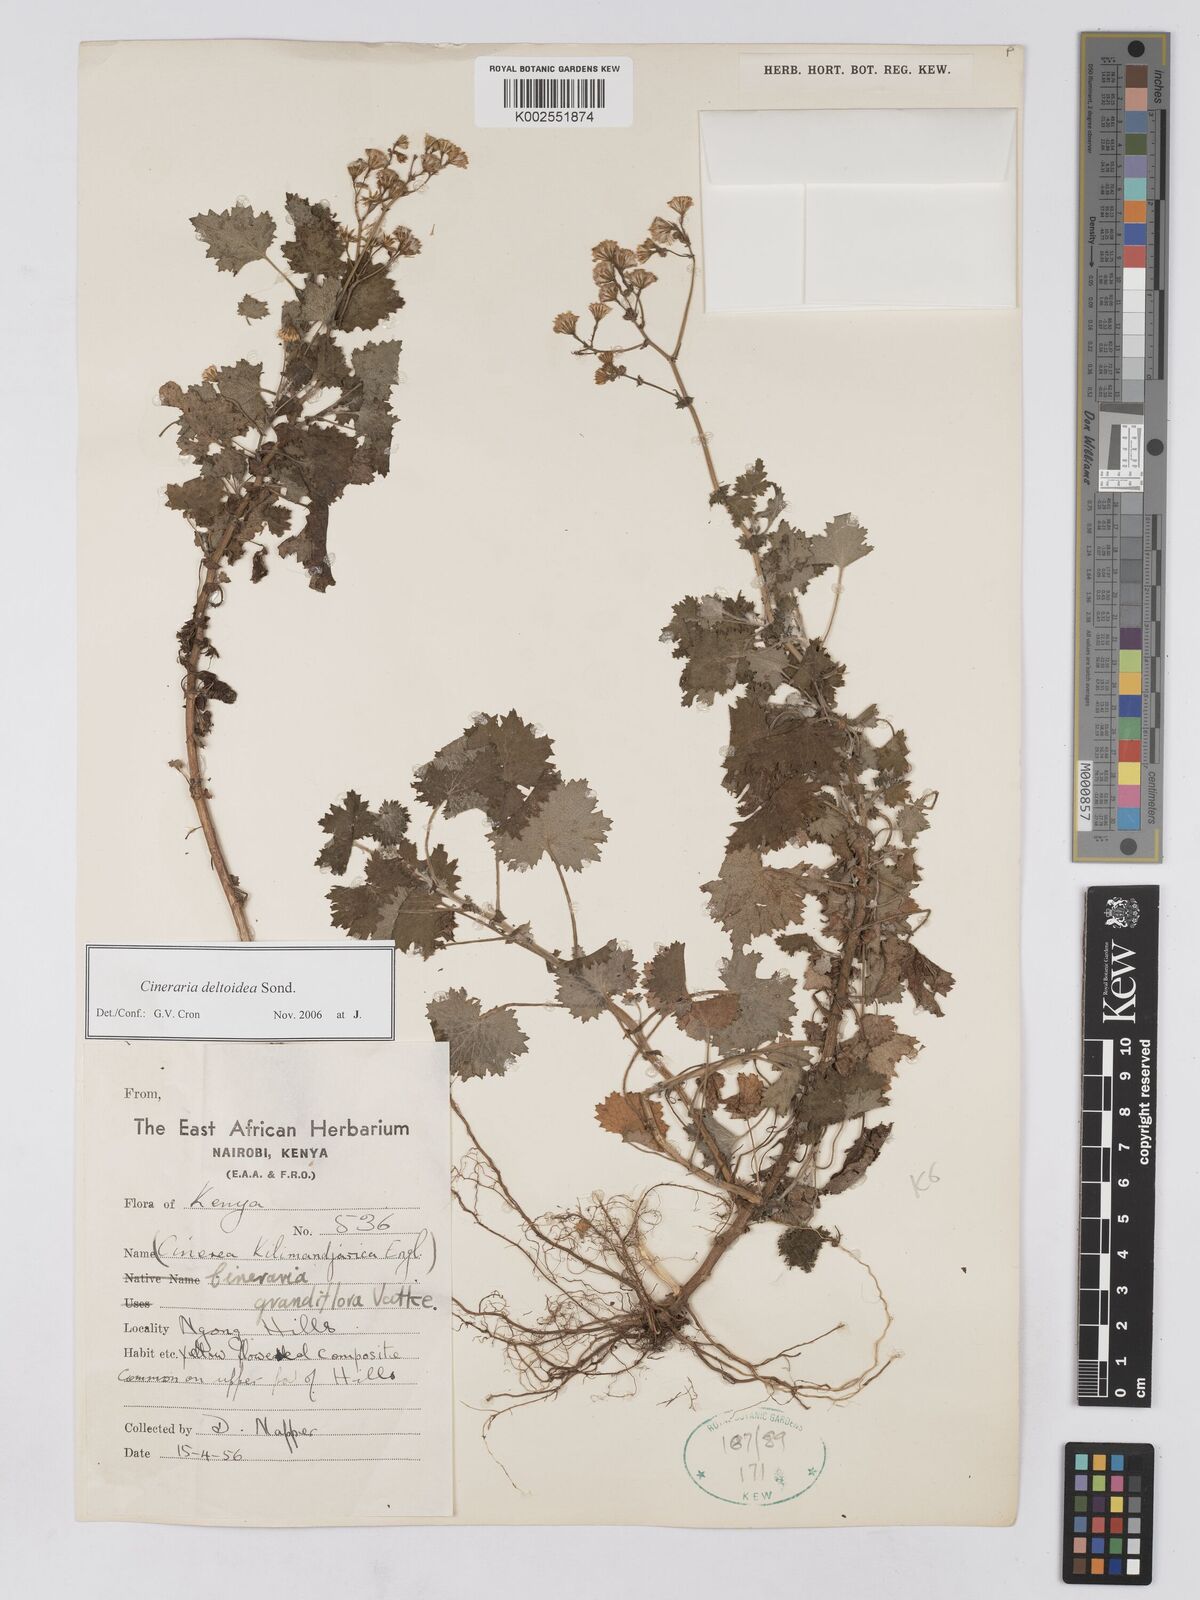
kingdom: Plantae
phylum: Tracheophyta
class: Magnoliopsida
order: Asterales
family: Asteraceae
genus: Cineraria
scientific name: Cineraria deltoidea
